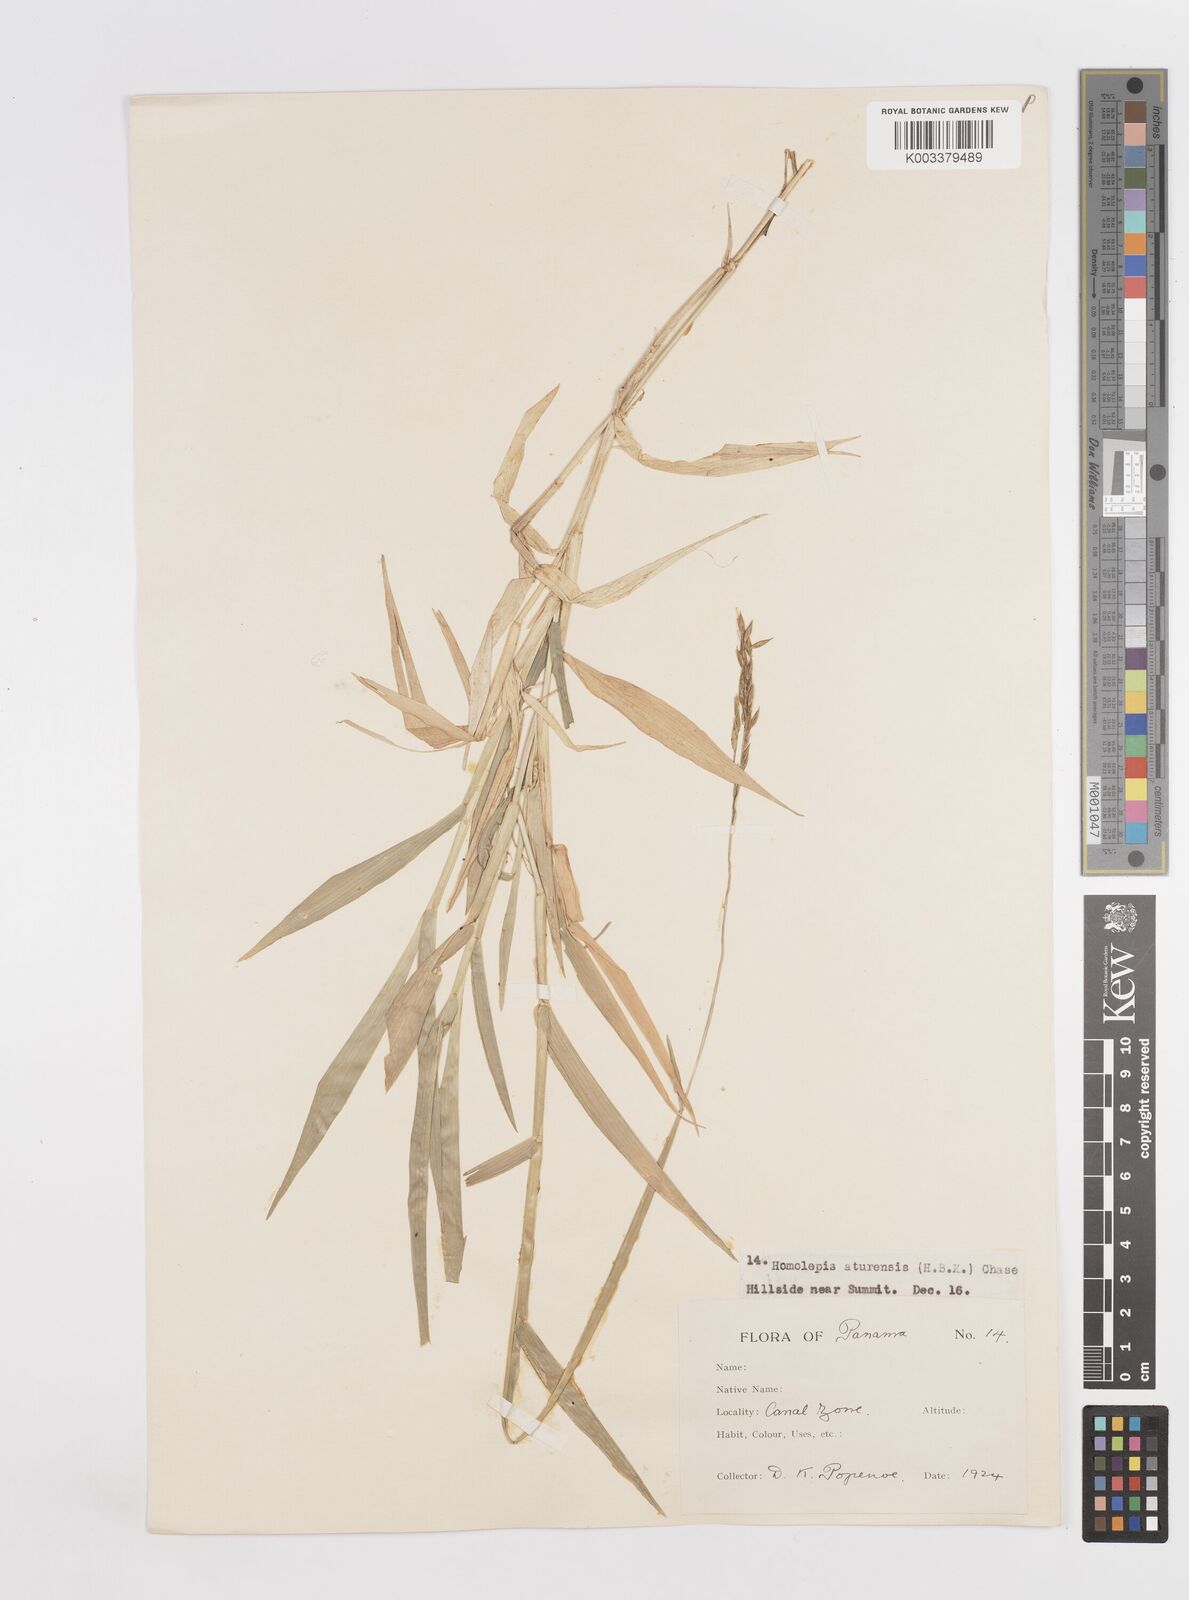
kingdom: Plantae
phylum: Tracheophyta
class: Liliopsida
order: Poales
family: Poaceae
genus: Homolepis
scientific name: Homolepis aturensis
